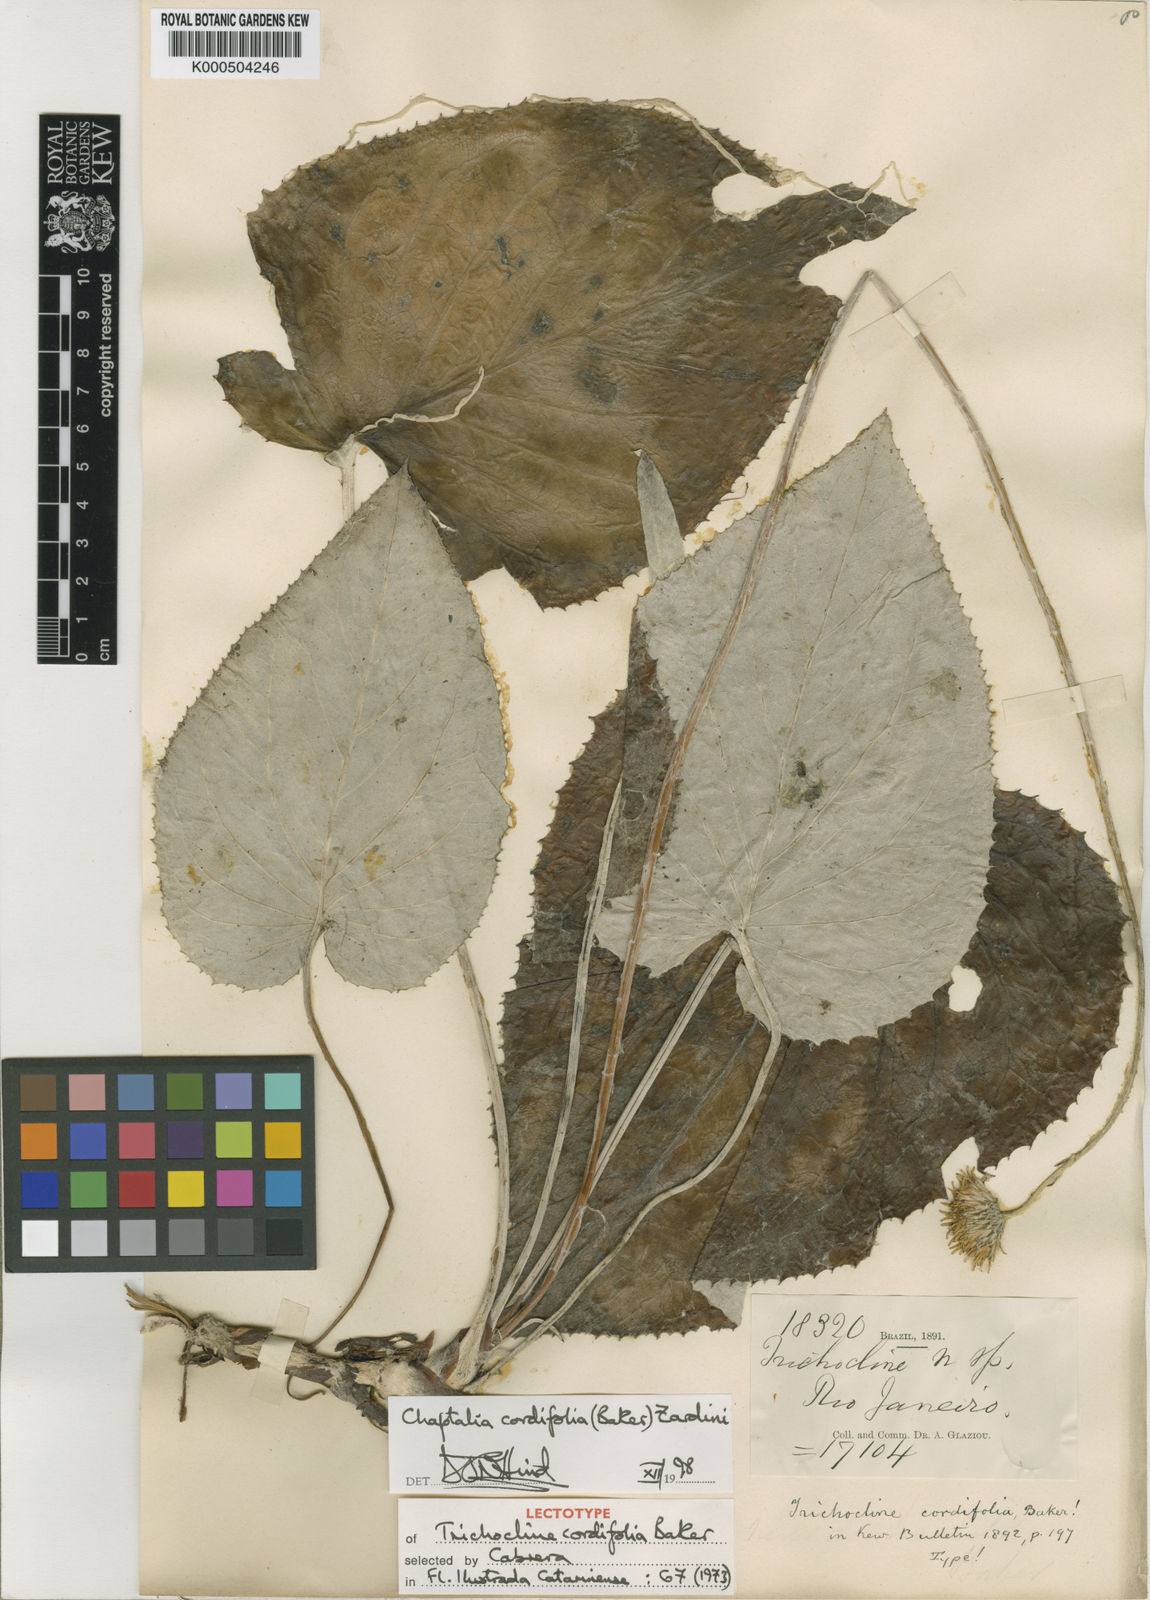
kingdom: Plantae
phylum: Tracheophyta
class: Magnoliopsida
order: Asterales
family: Asteraceae
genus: Chaptalia
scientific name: Chaptalia cordifolia
